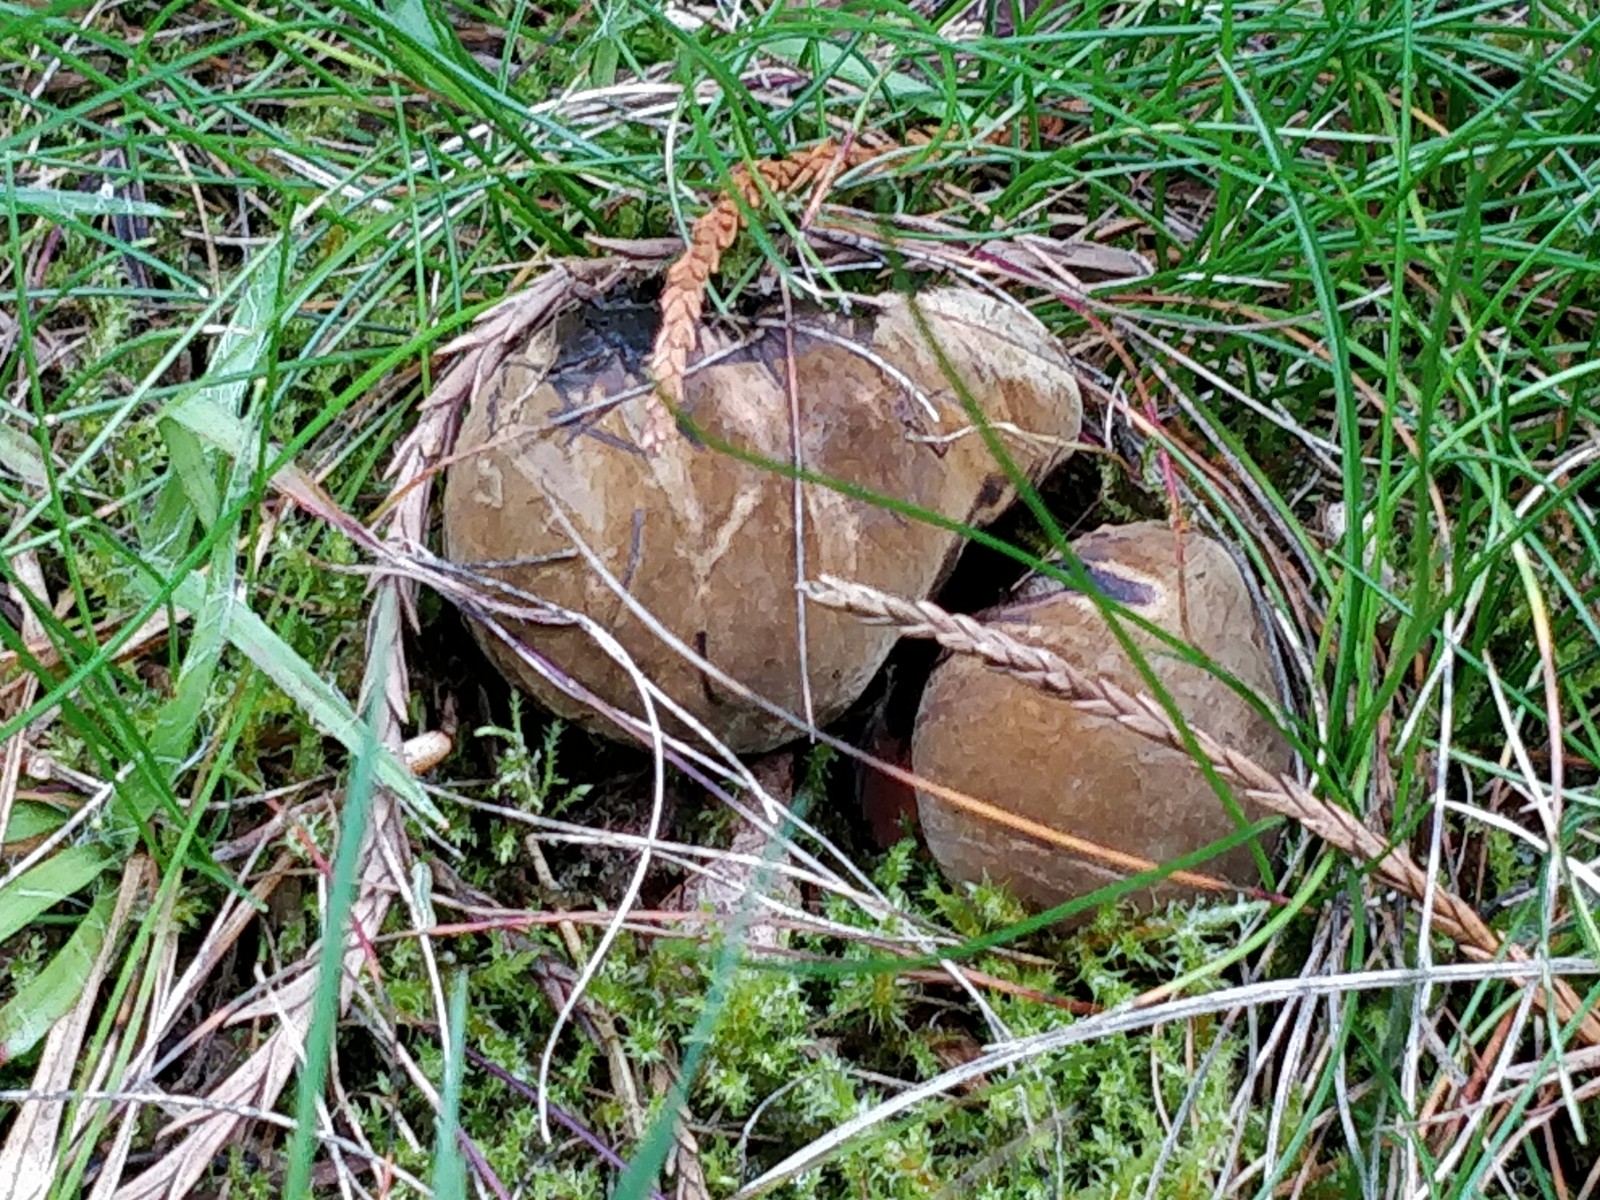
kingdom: Fungi
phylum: Basidiomycota
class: Agaricomycetes
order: Boletales
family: Boletaceae
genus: Neoboletus
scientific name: Neoboletus erythropus
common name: punktstokket indigorørhat
